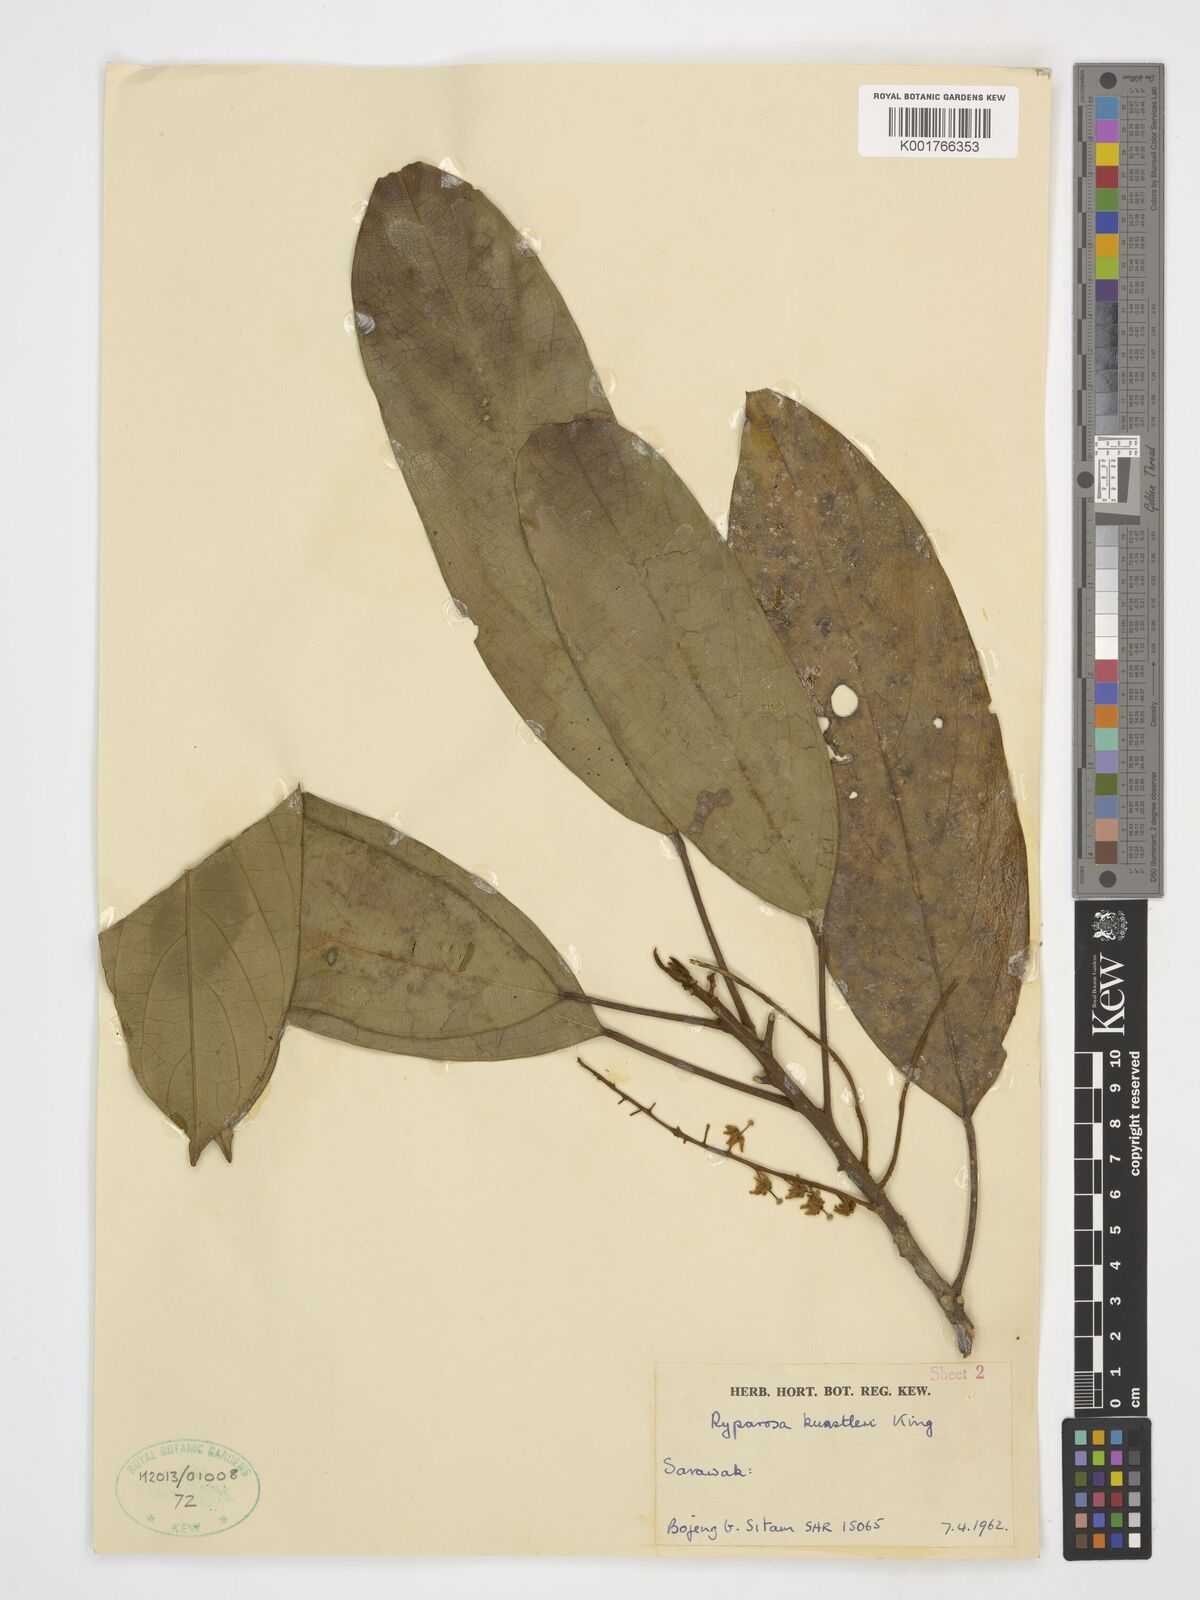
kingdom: Plantae
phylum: Tracheophyta
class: Magnoliopsida
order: Malpighiales
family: Achariaceae
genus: Ryparosa
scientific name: Ryparosa kunstleri
